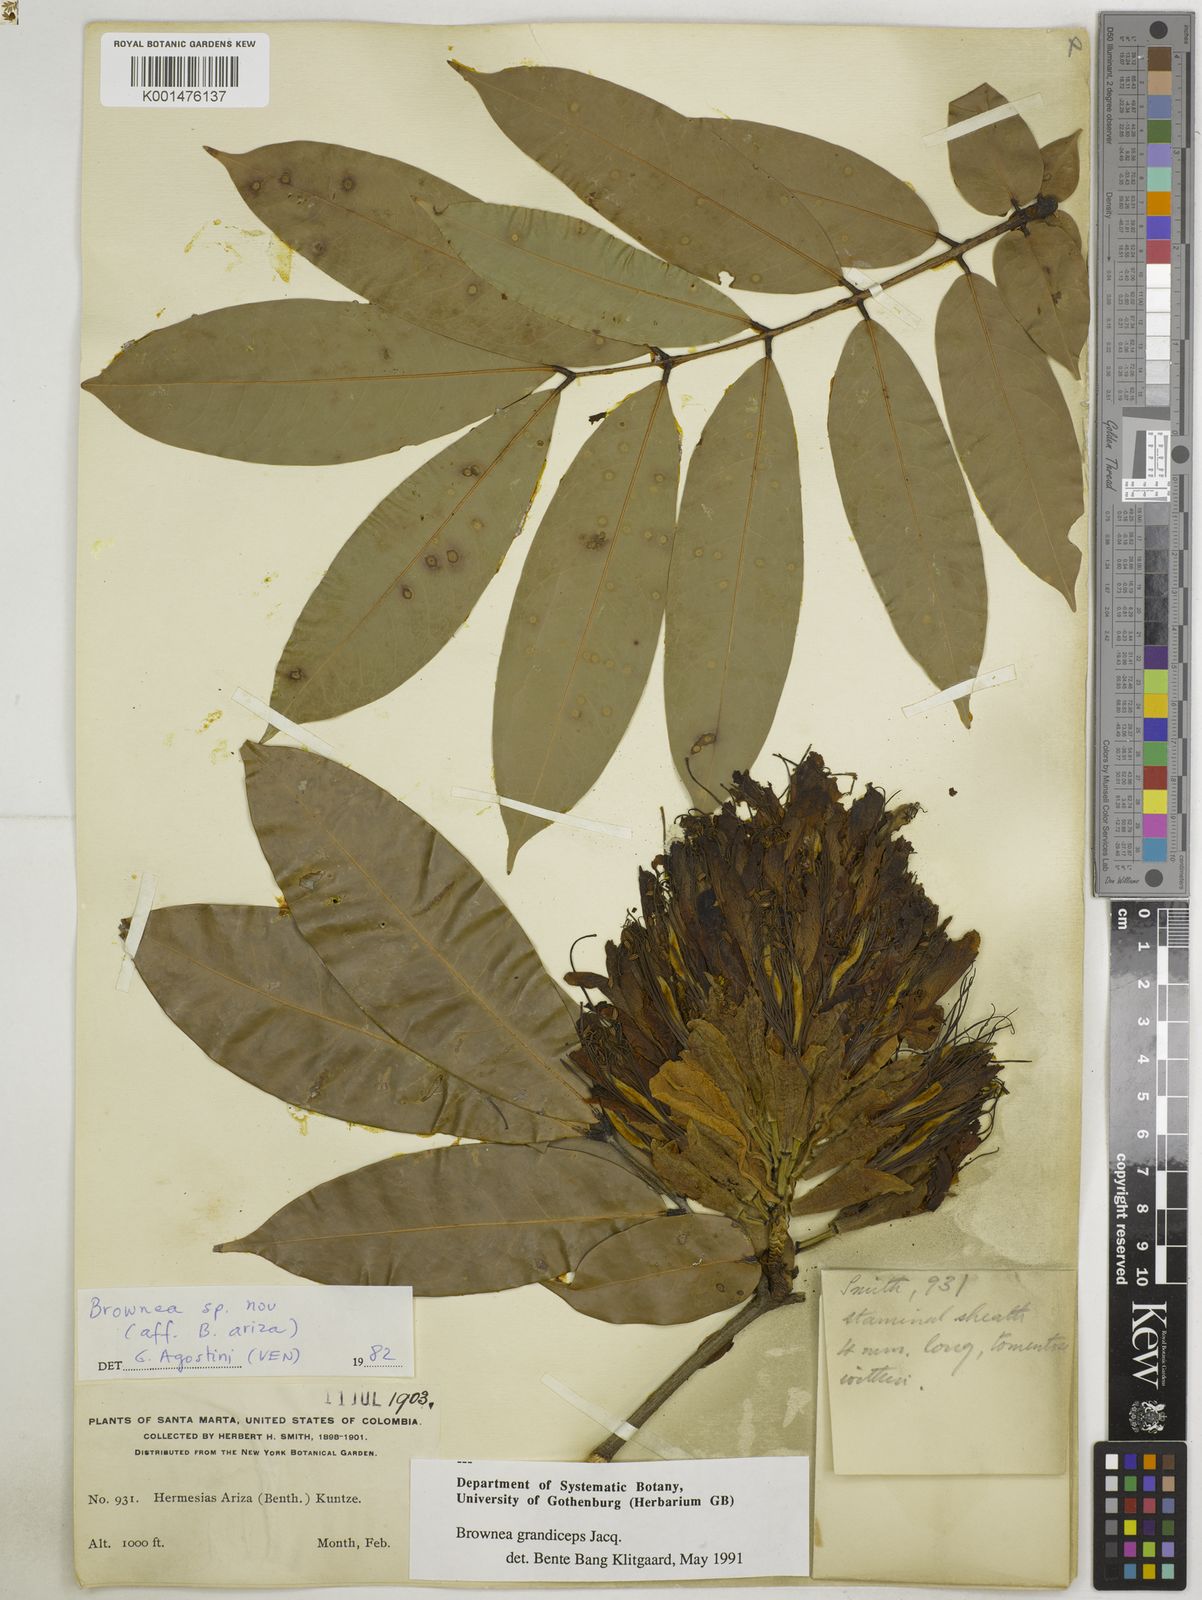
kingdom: Plantae
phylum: Tracheophyta
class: Magnoliopsida
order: Fabales
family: Fabaceae
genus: Brownea
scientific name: Brownea grandiceps
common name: Rose-of-venezuela
